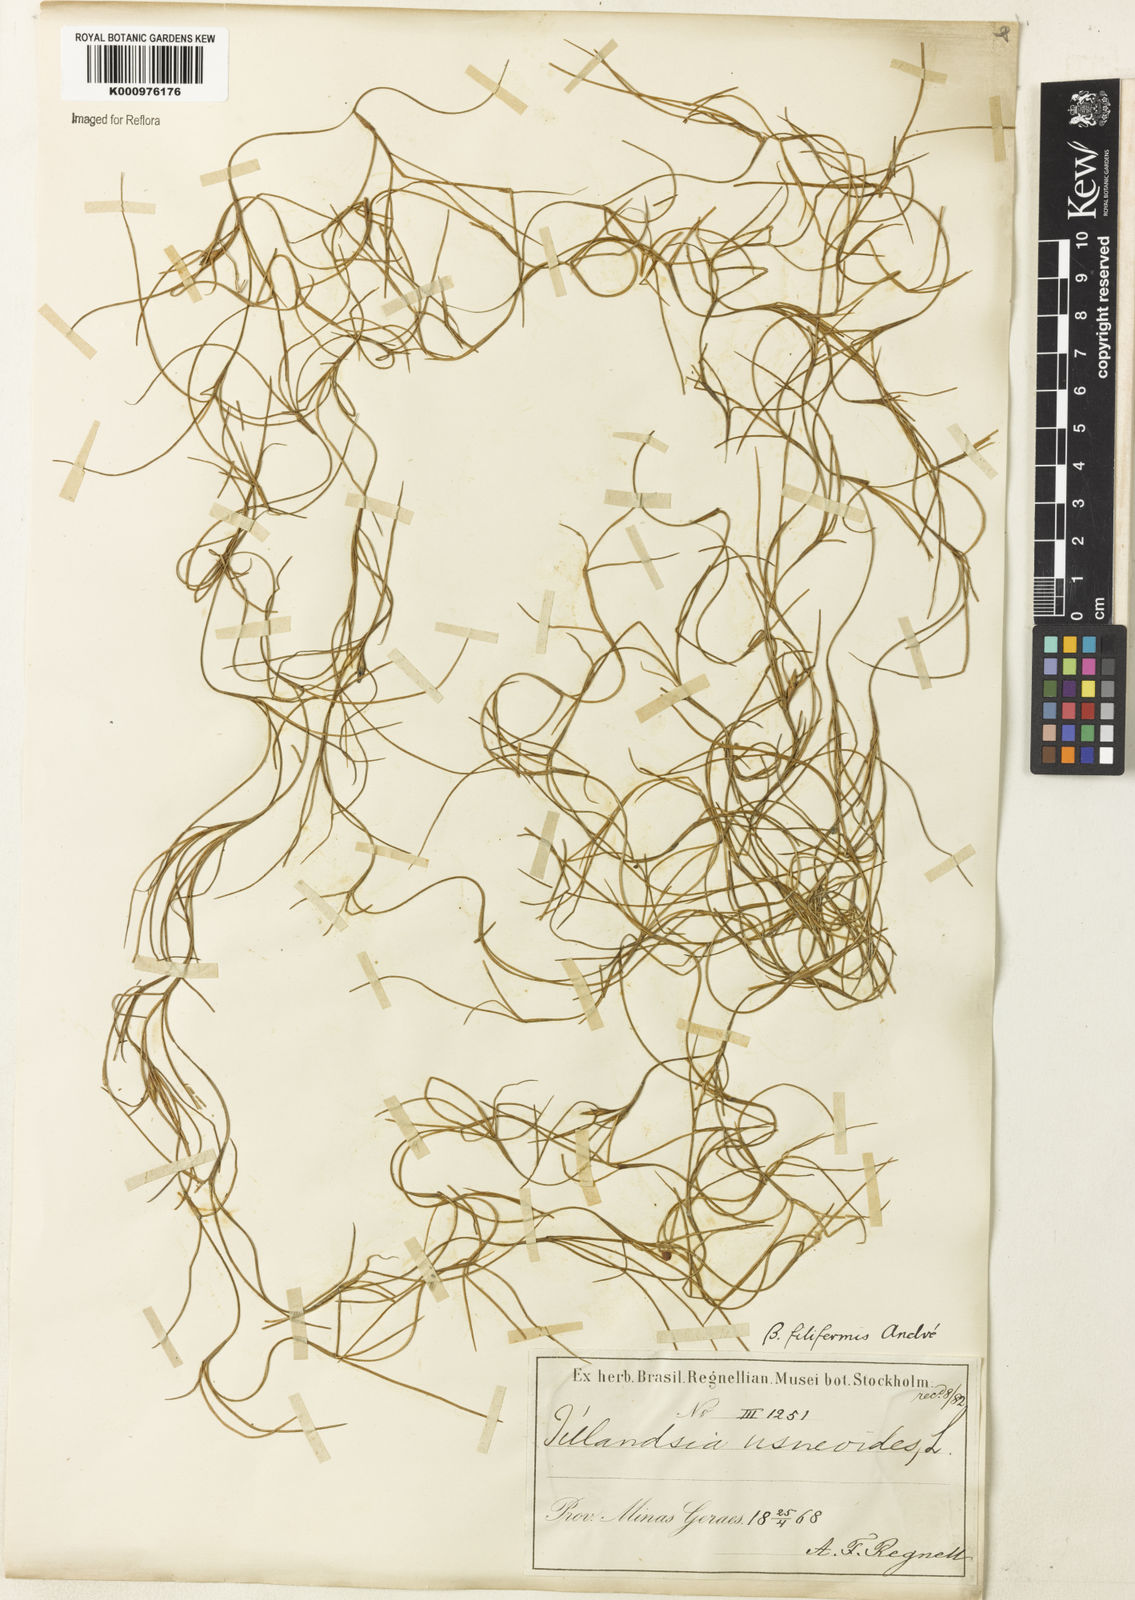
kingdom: Plantae
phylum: Tracheophyta
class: Liliopsida
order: Poales
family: Bromeliaceae
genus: Tillandsia
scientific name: Tillandsia usneoides
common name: Spanish moss
